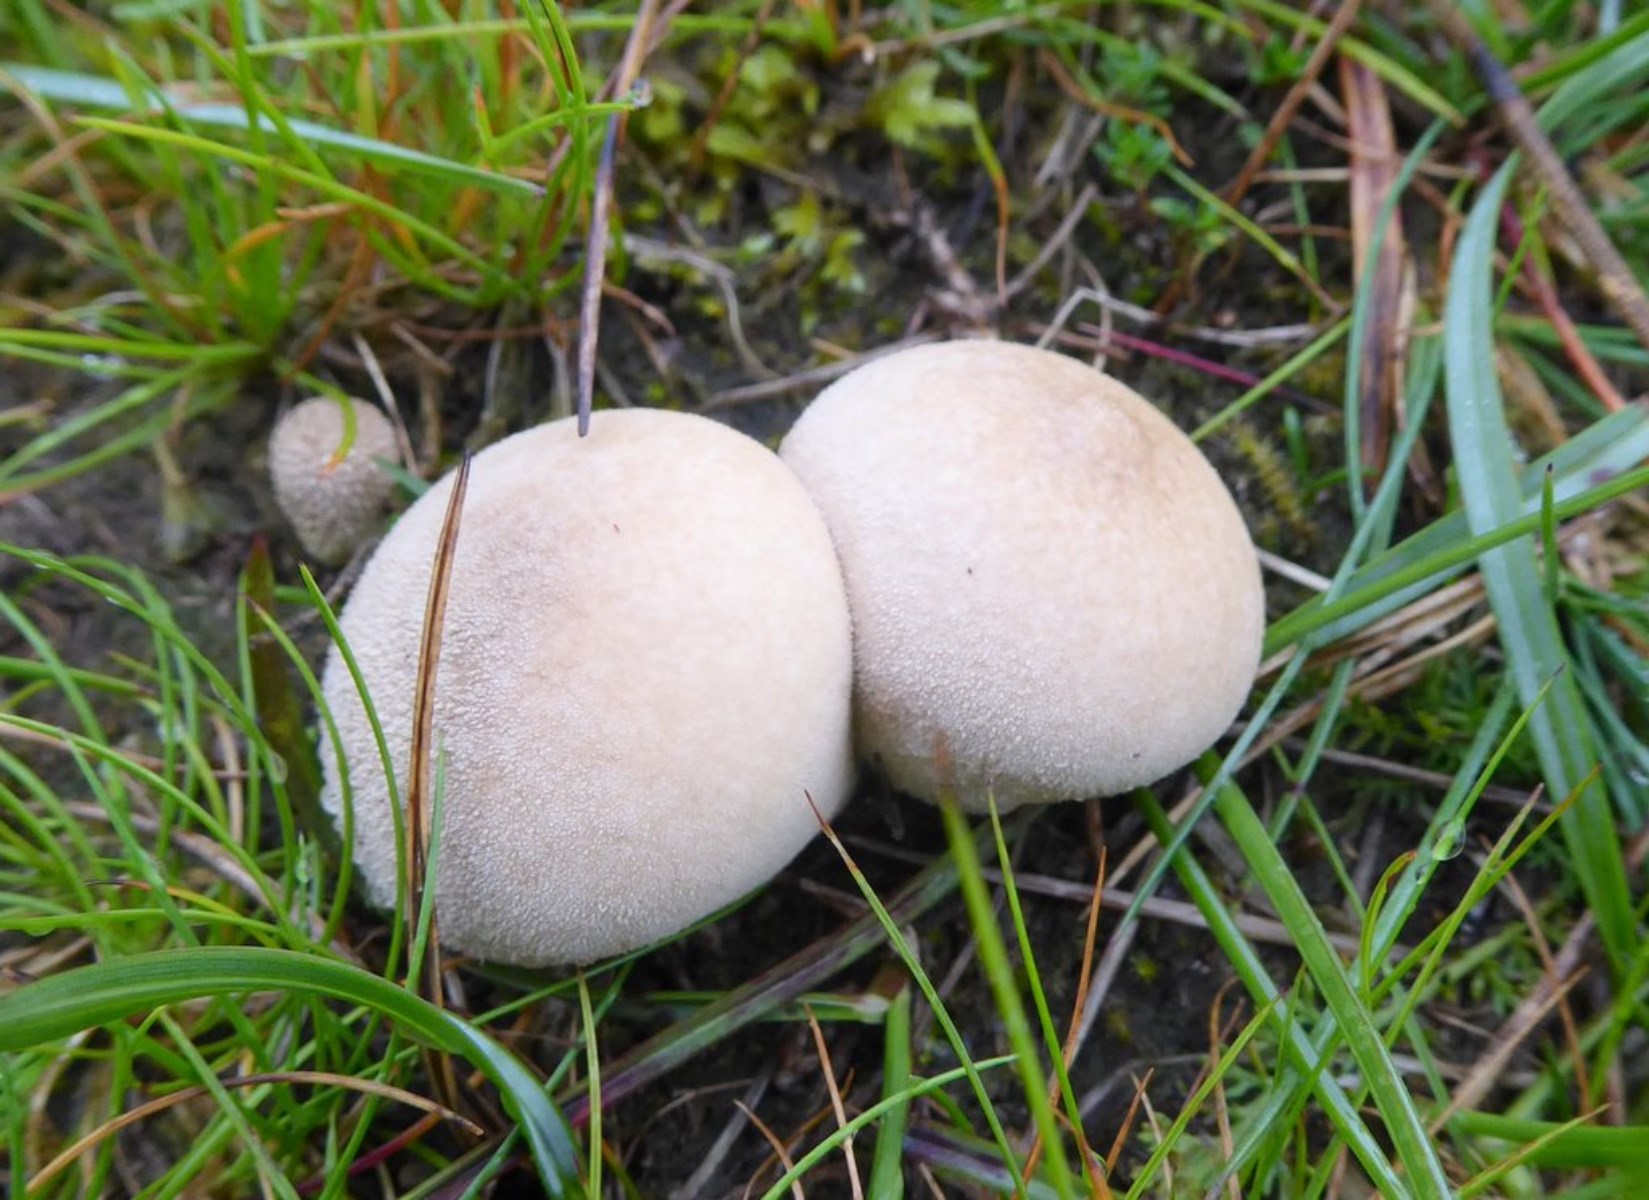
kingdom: Fungi
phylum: Basidiomycota
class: Agaricomycetes
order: Agaricales
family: Lycoperdaceae
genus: Lycoperdon
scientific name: Lycoperdon pratense
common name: flad støvbold
